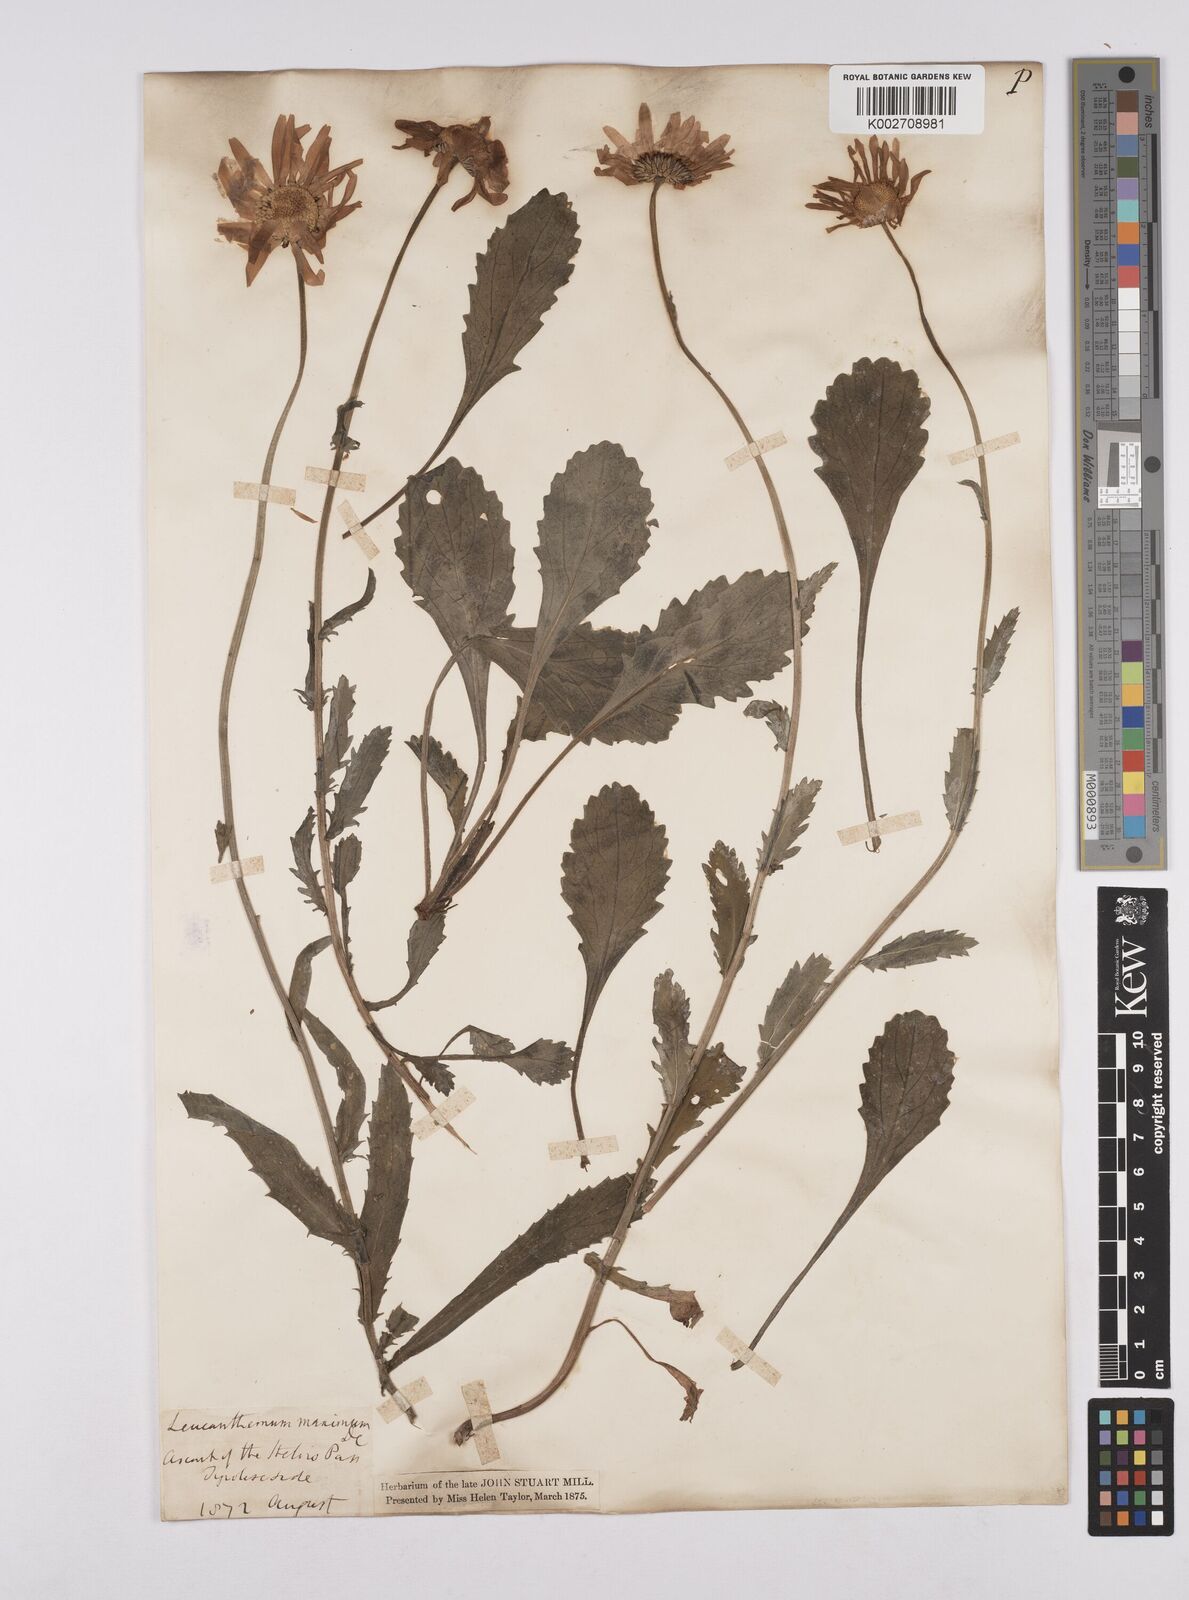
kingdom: Plantae
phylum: Tracheophyta
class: Magnoliopsida
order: Asterales
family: Asteraceae
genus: Leucanthemum
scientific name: Leucanthemum vulgare
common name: Oxeye daisy
